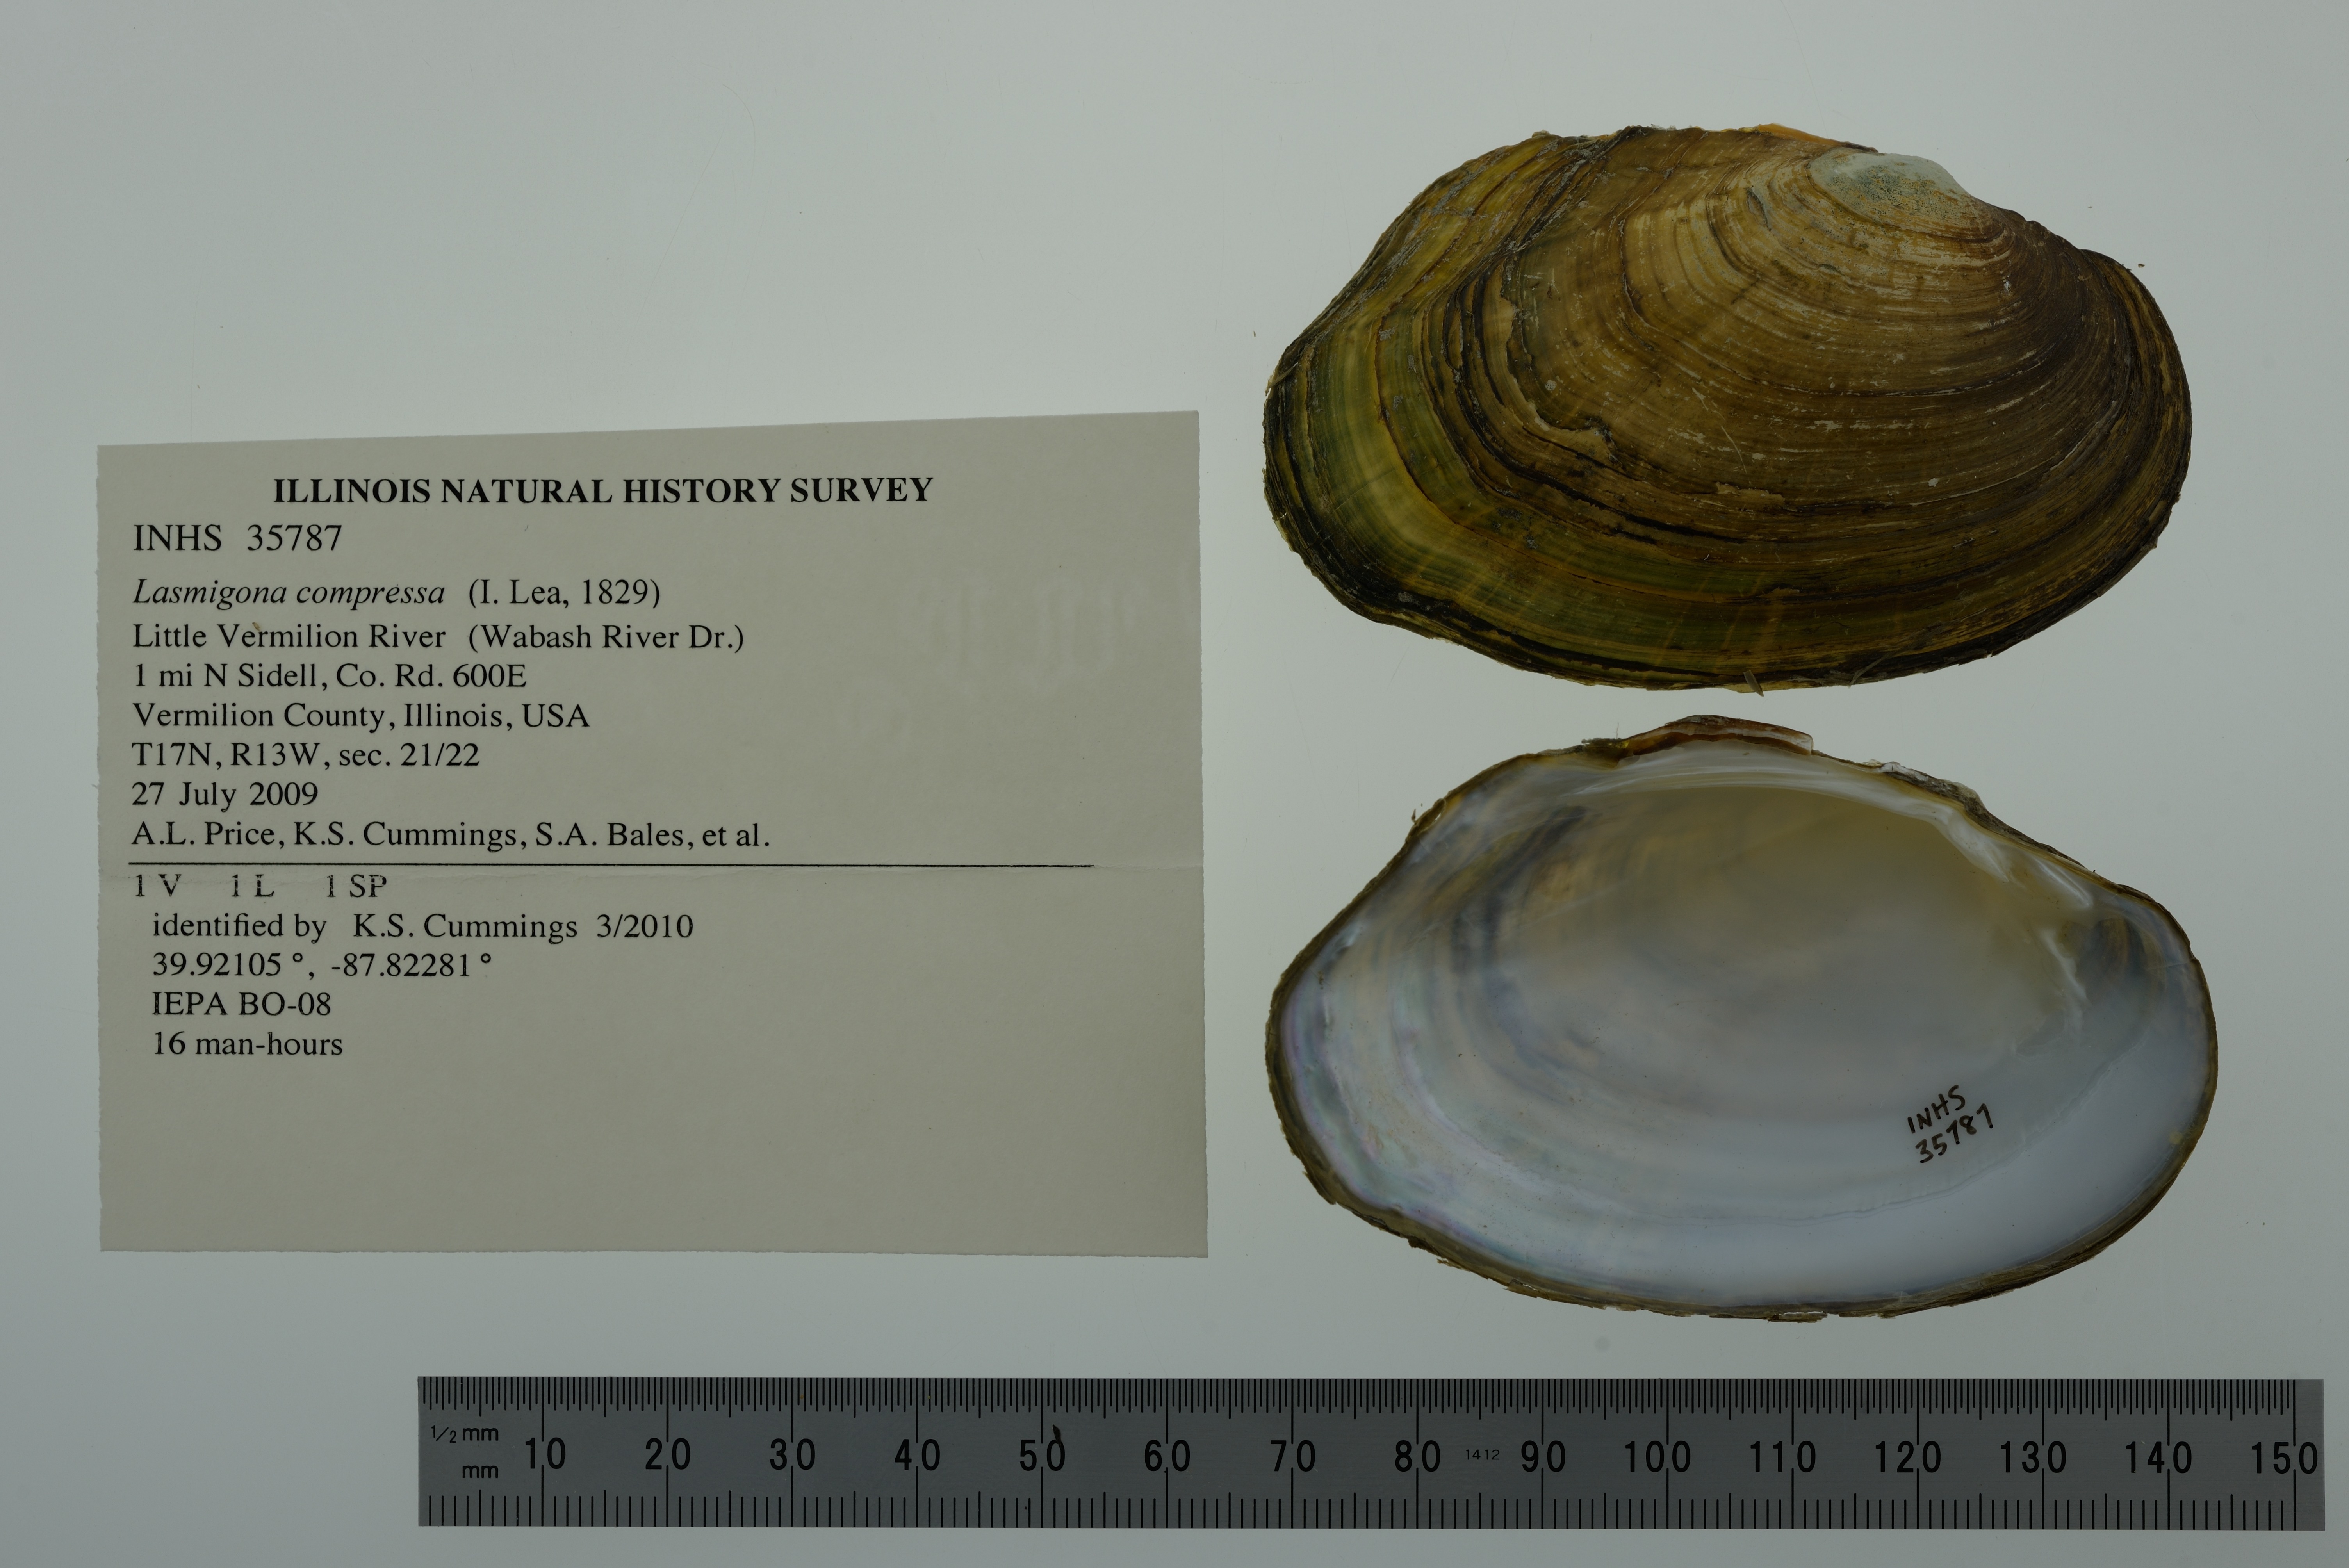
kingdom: Animalia
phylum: Mollusca
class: Bivalvia
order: Unionida
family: Unionidae
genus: Lasmigona
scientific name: Lasmigona compressa
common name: Creek heelsplitter
